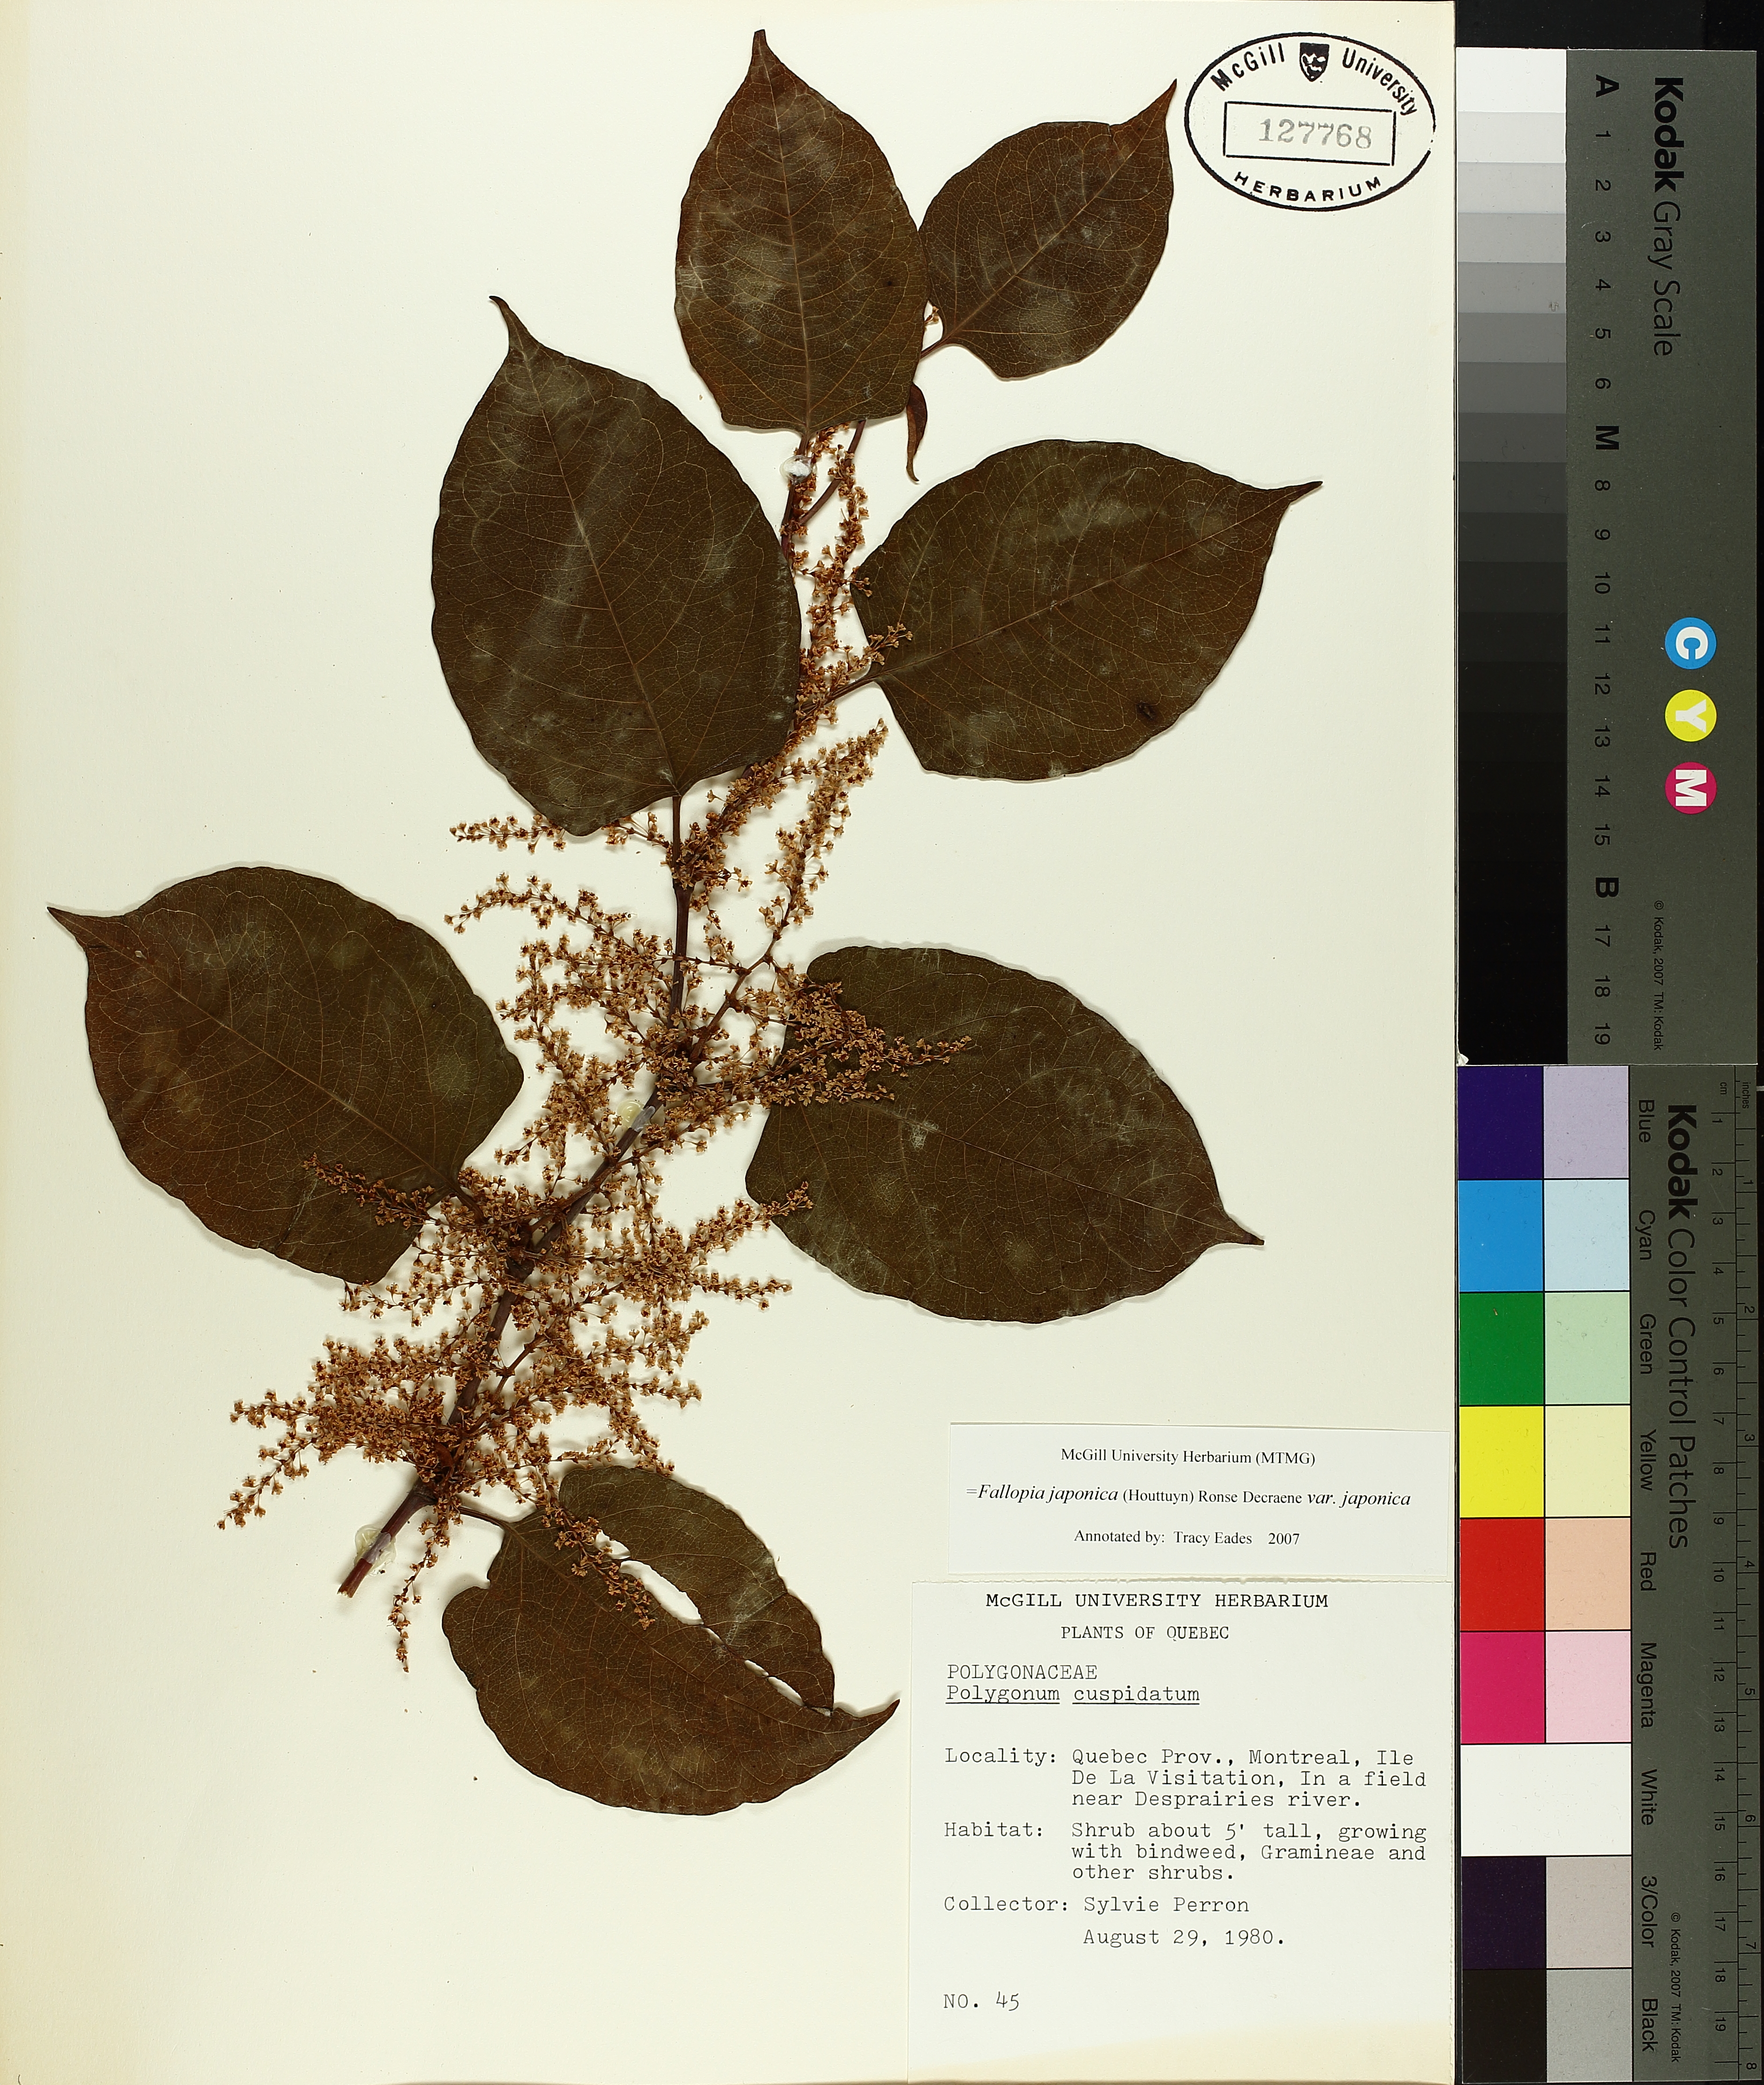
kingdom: Plantae
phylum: Tracheophyta
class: Magnoliopsida
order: Caryophyllales
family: Polygonaceae
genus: Reynoutria
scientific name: Reynoutria japonica
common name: Japanese knotweed
